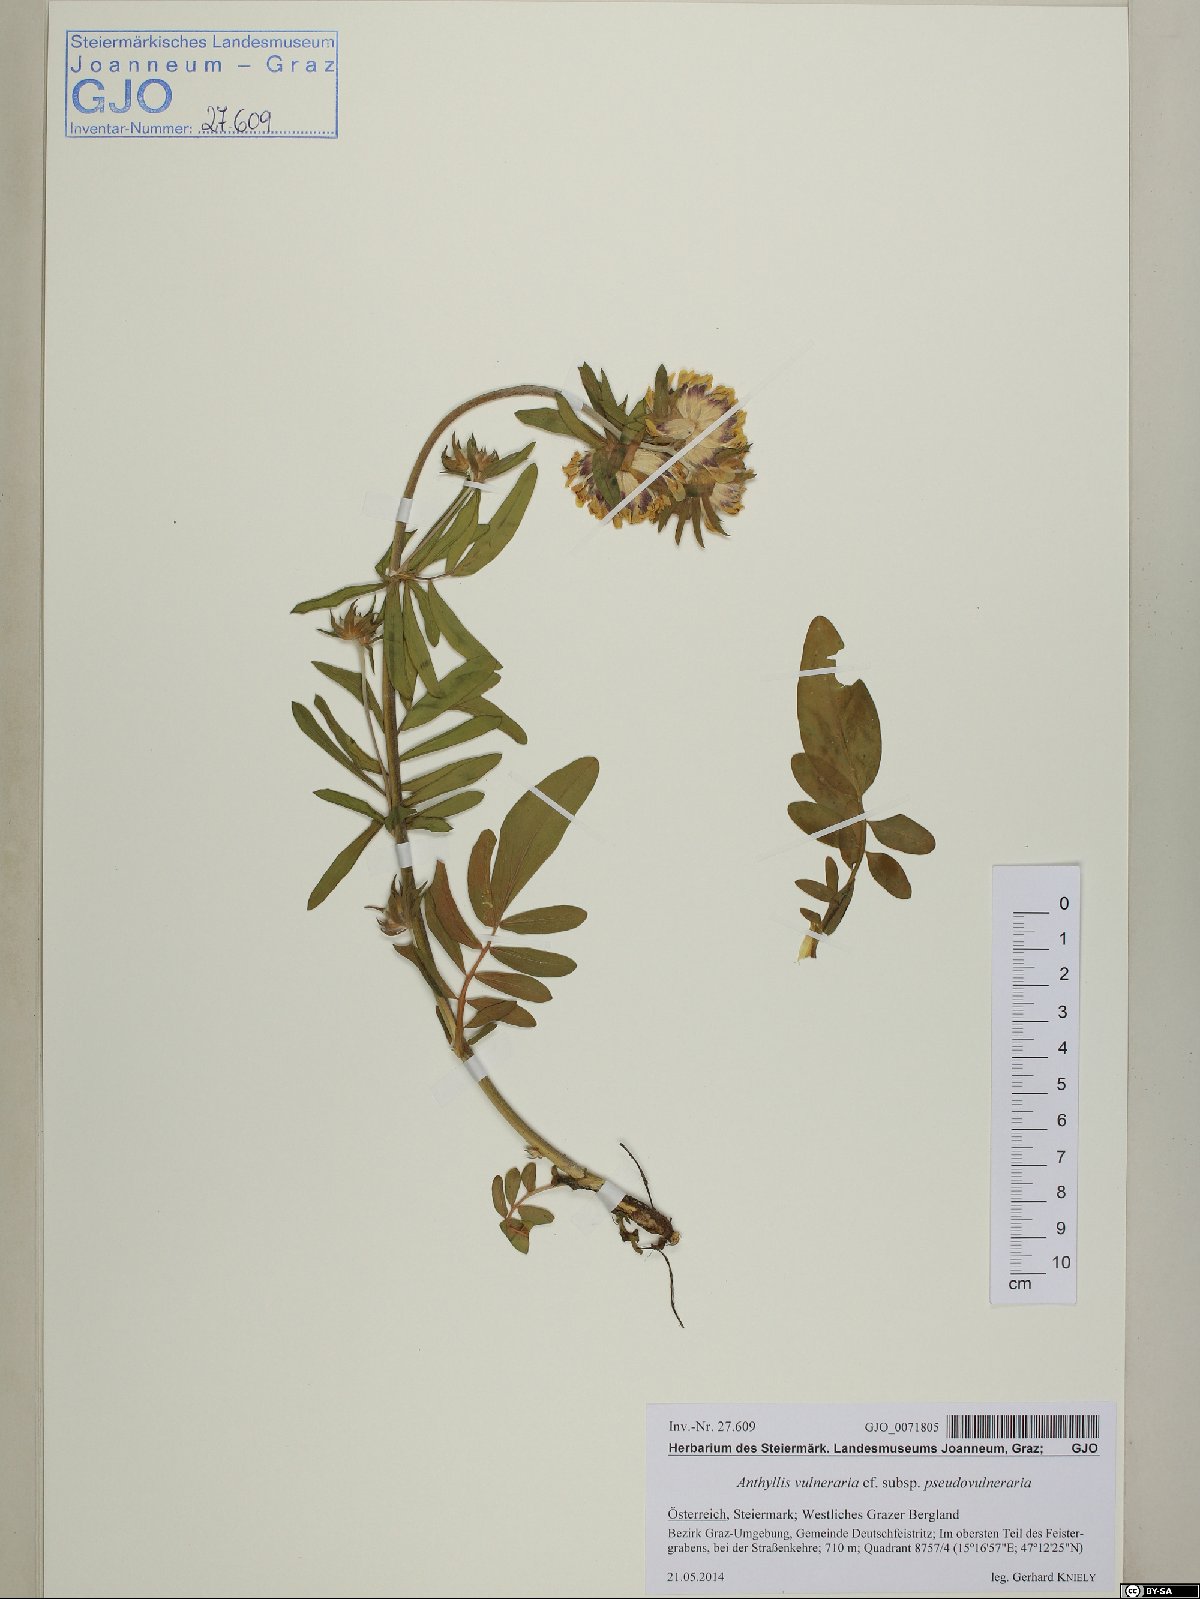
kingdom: Plantae
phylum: Tracheophyta
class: Magnoliopsida
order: Fabales
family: Fabaceae
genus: Anthyllis
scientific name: Anthyllis vulneraria
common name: Kidney vetch
